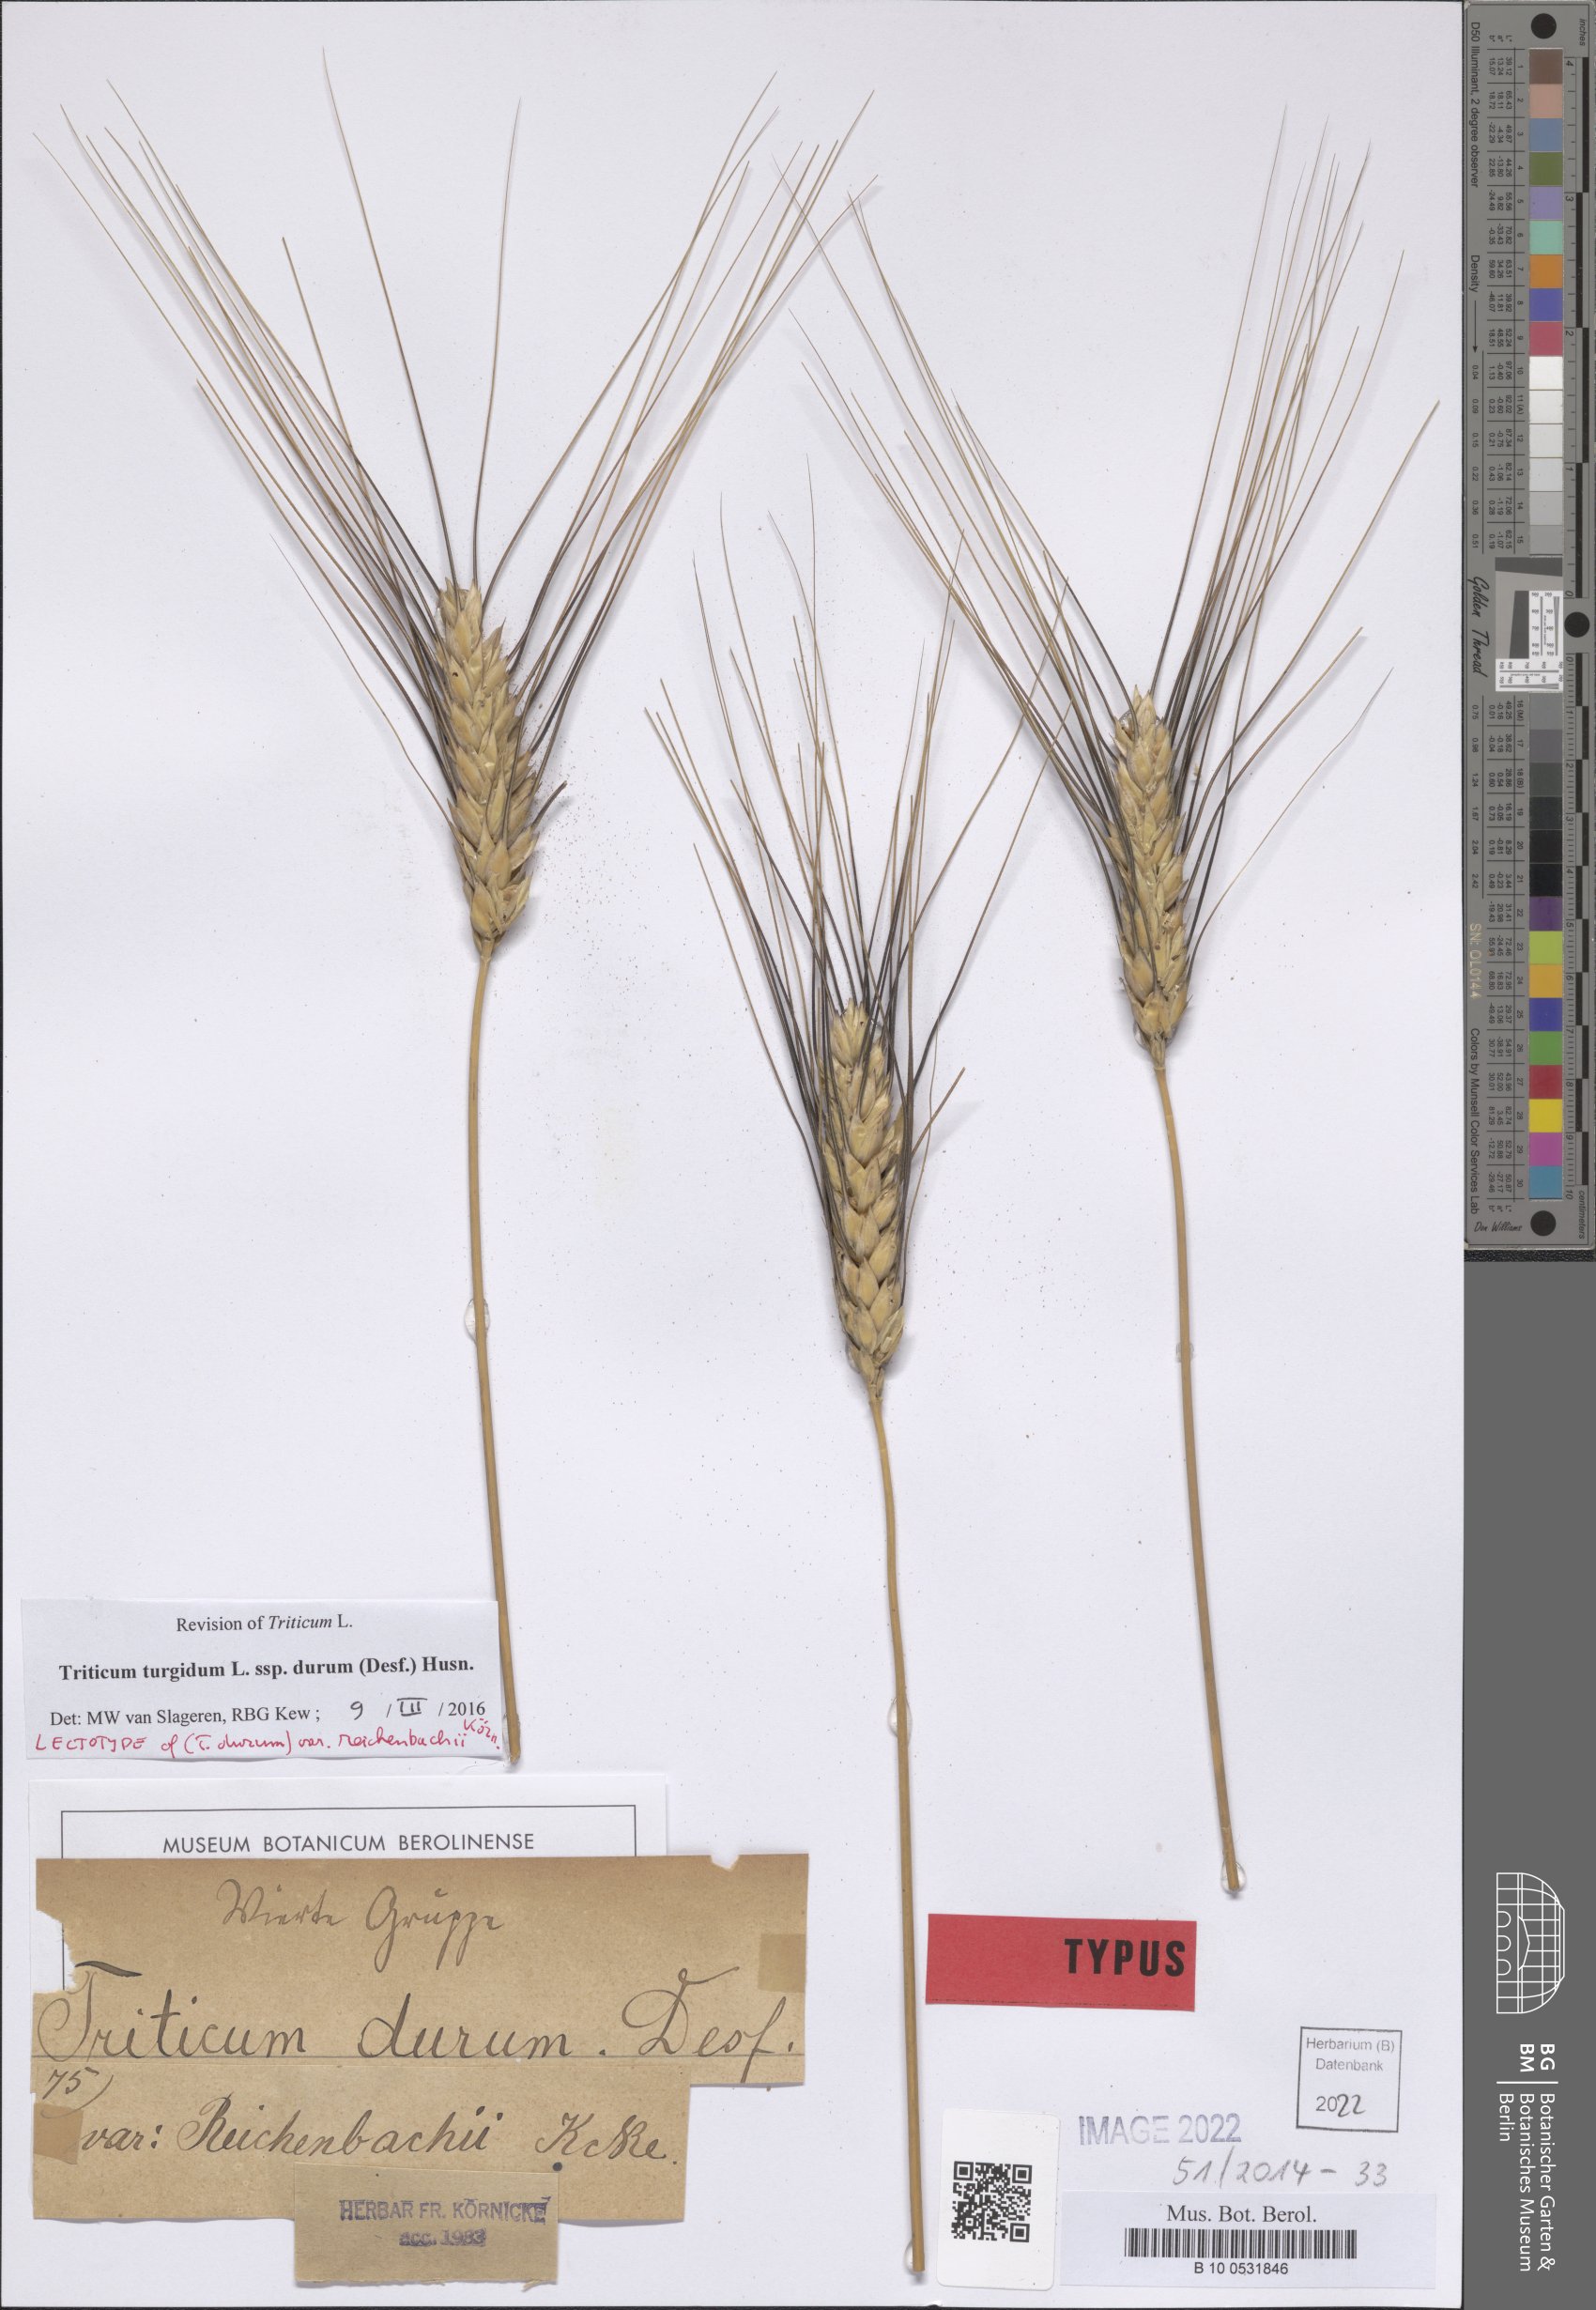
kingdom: Plantae
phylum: Tracheophyta
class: Liliopsida
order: Poales
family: Poaceae
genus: Triticum
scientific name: Triticum turgidum
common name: Rivet wheat
